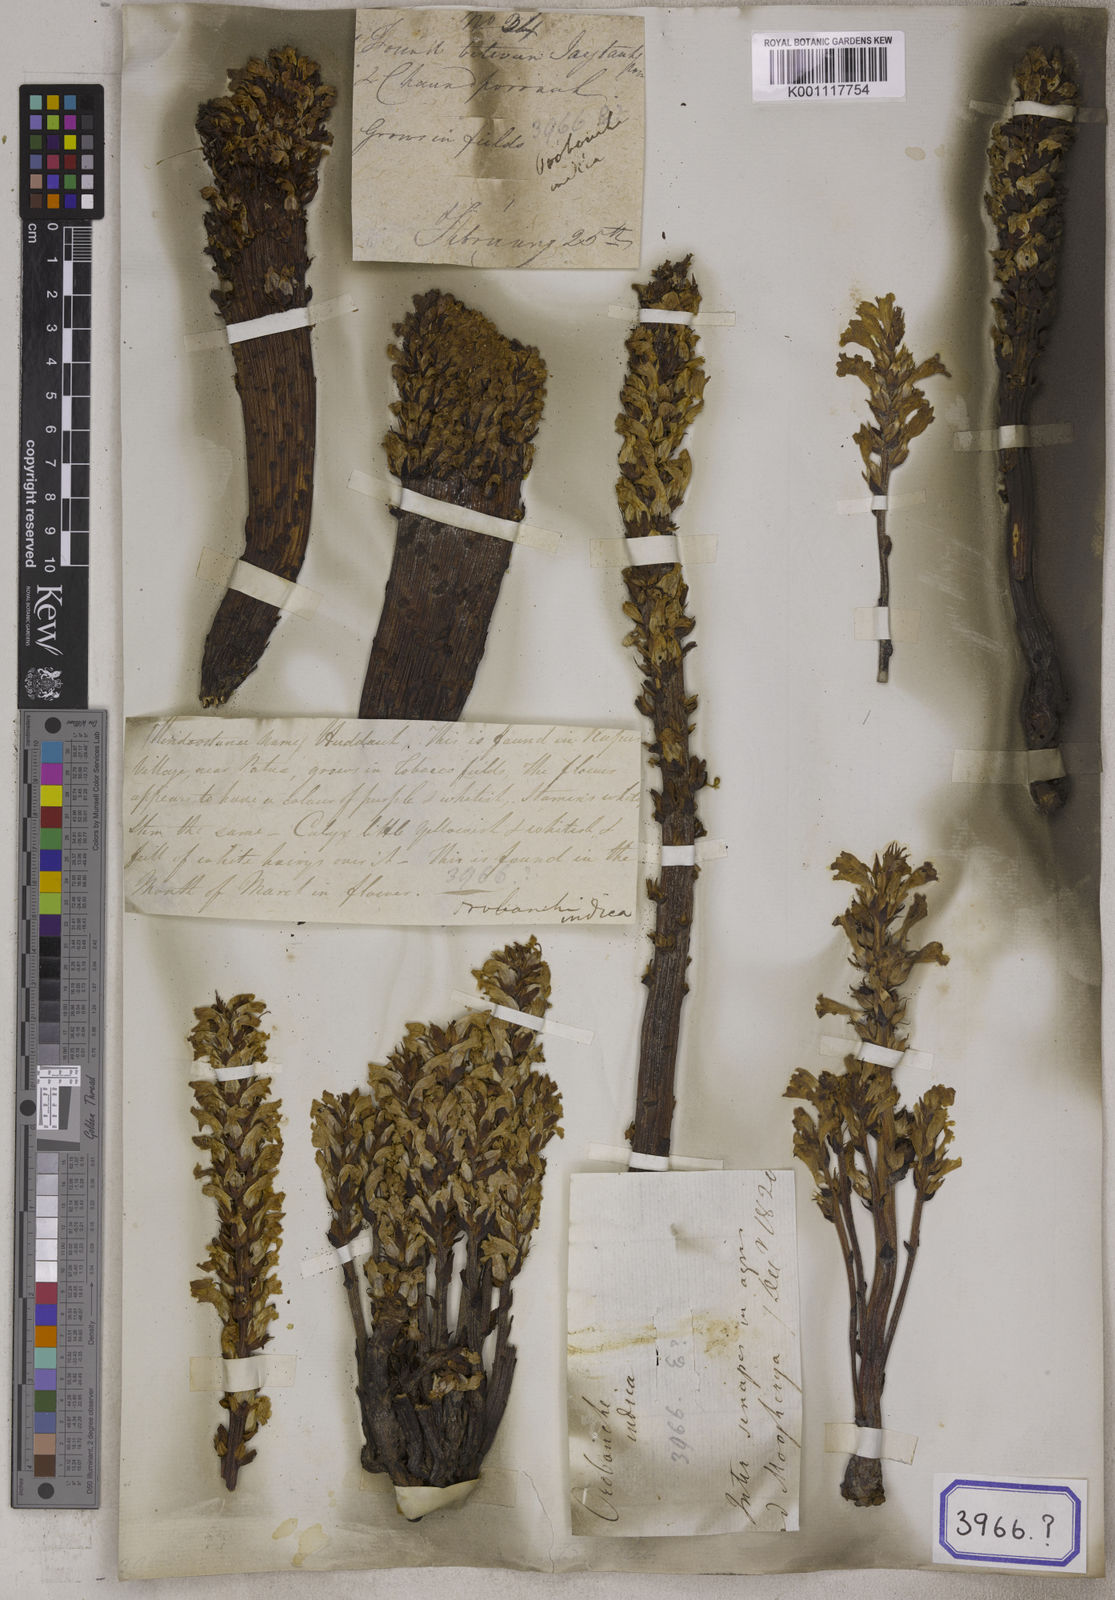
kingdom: Plantae
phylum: Tracheophyta
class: Magnoliopsida
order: Lamiales
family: Orobanchaceae
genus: Orobanche
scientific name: Orobanche cernua
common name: Australian broomrape
